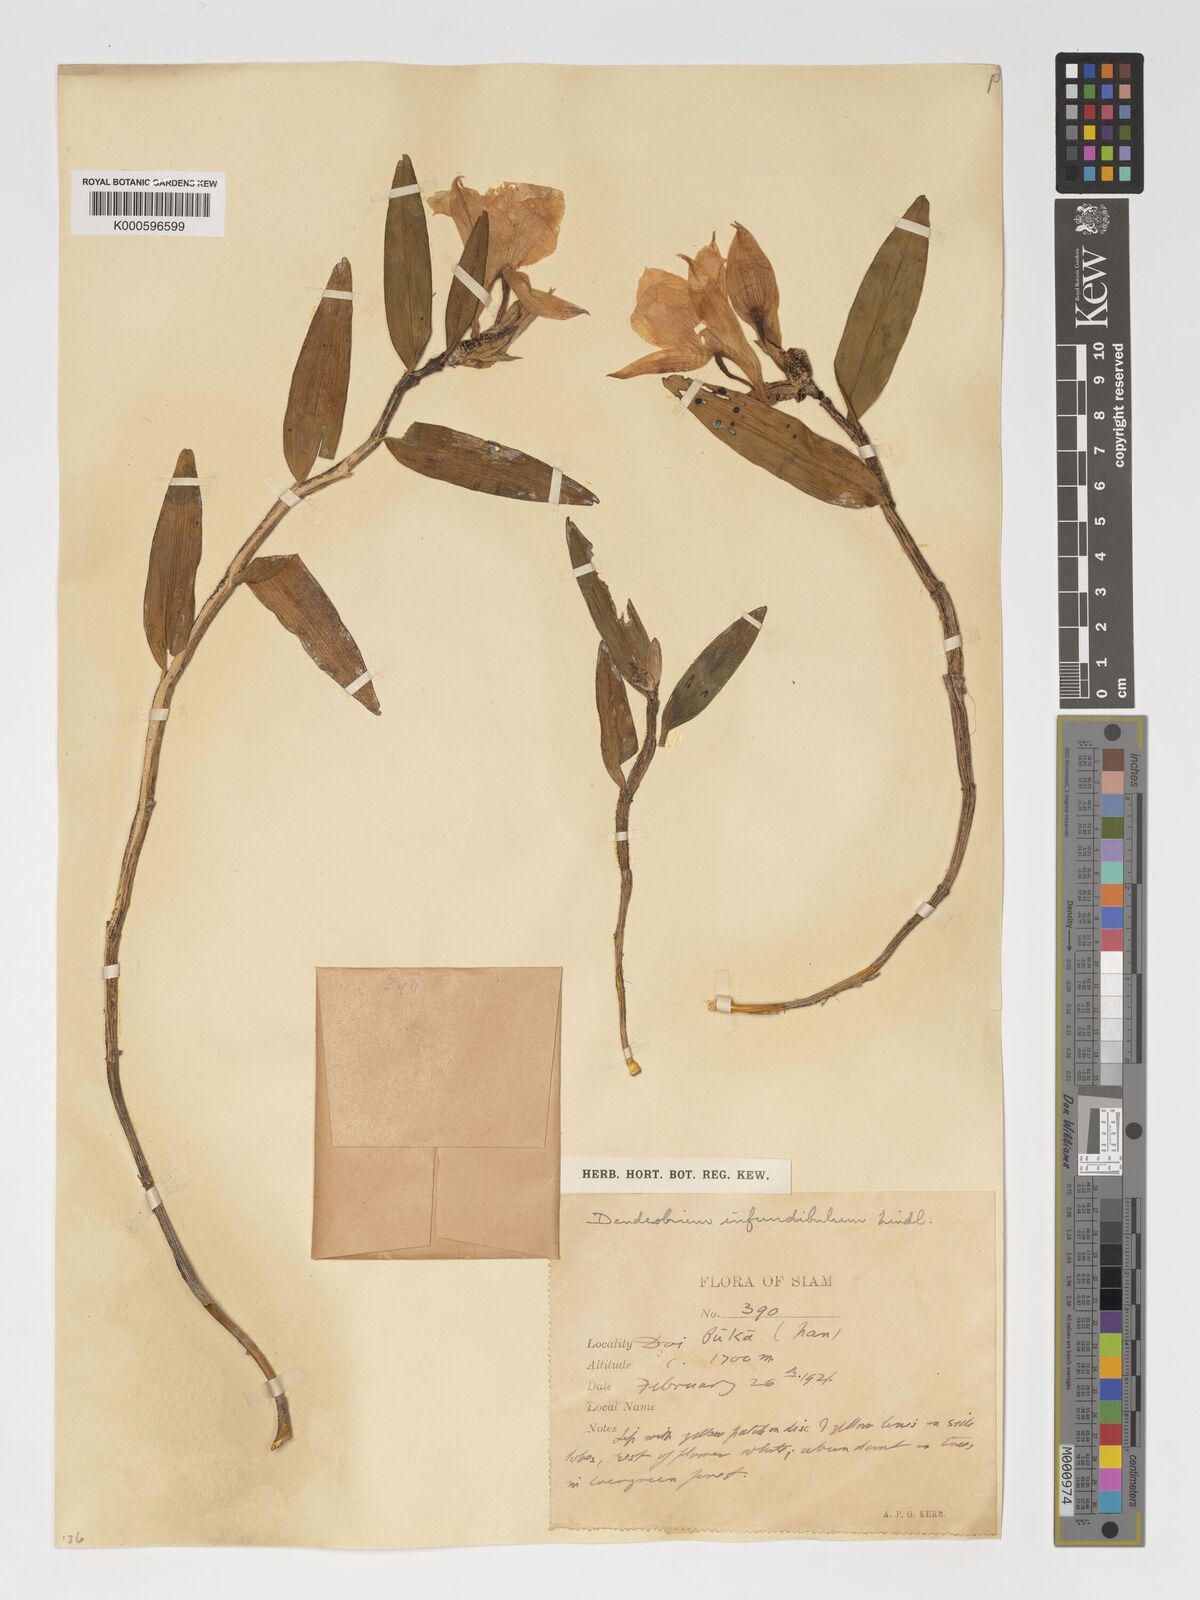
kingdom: Plantae
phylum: Tracheophyta
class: Liliopsida
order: Asparagales
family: Orchidaceae
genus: Dendrobium
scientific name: Dendrobium infundibulum
